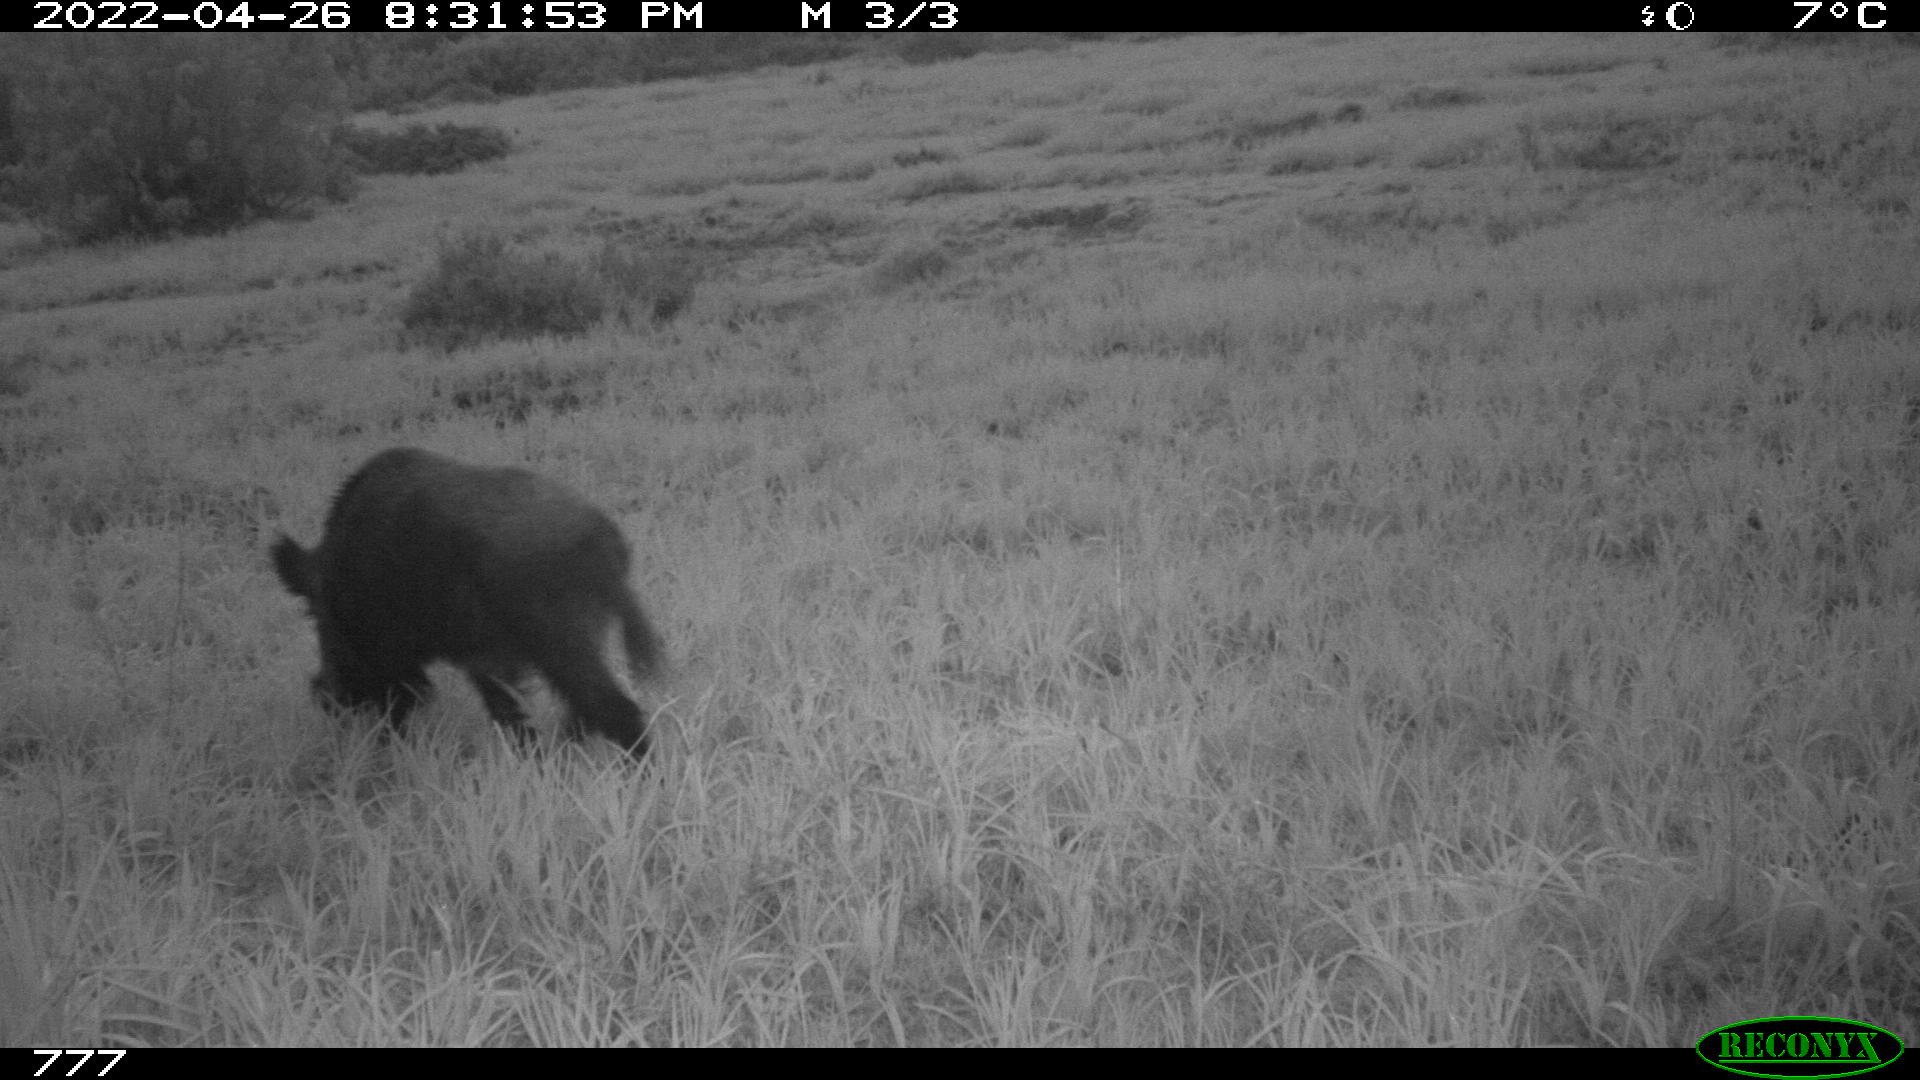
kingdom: Animalia
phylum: Chordata
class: Mammalia
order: Artiodactyla
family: Suidae
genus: Sus
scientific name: Sus scrofa
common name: Wild boar
